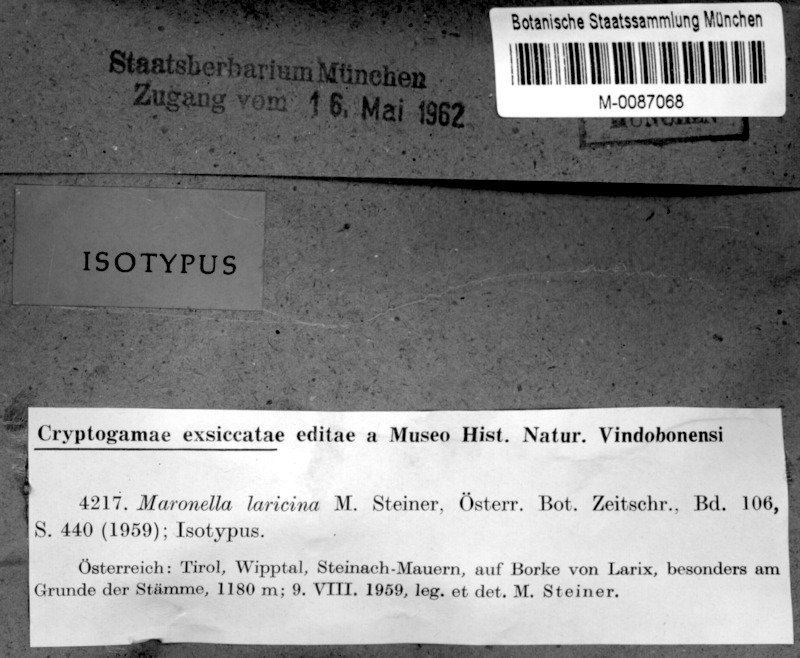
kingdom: Fungi
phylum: Ascomycota
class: Lecanoromycetes
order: Acarosporales
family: Acarosporaceae
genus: Maronella
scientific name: Maronella laricina
